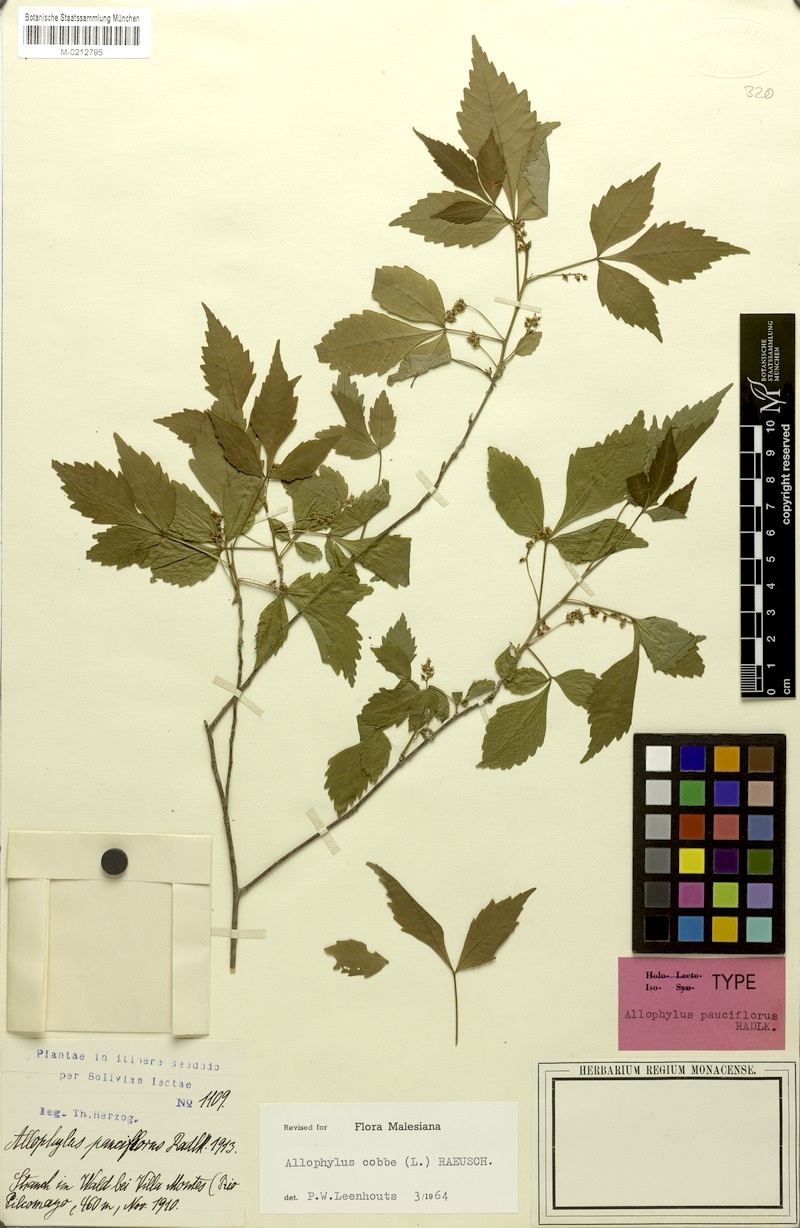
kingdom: Plantae
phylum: Tracheophyta
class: Magnoliopsida
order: Sapindales
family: Sapindaceae
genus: Allophylus
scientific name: Allophylus cobbe
